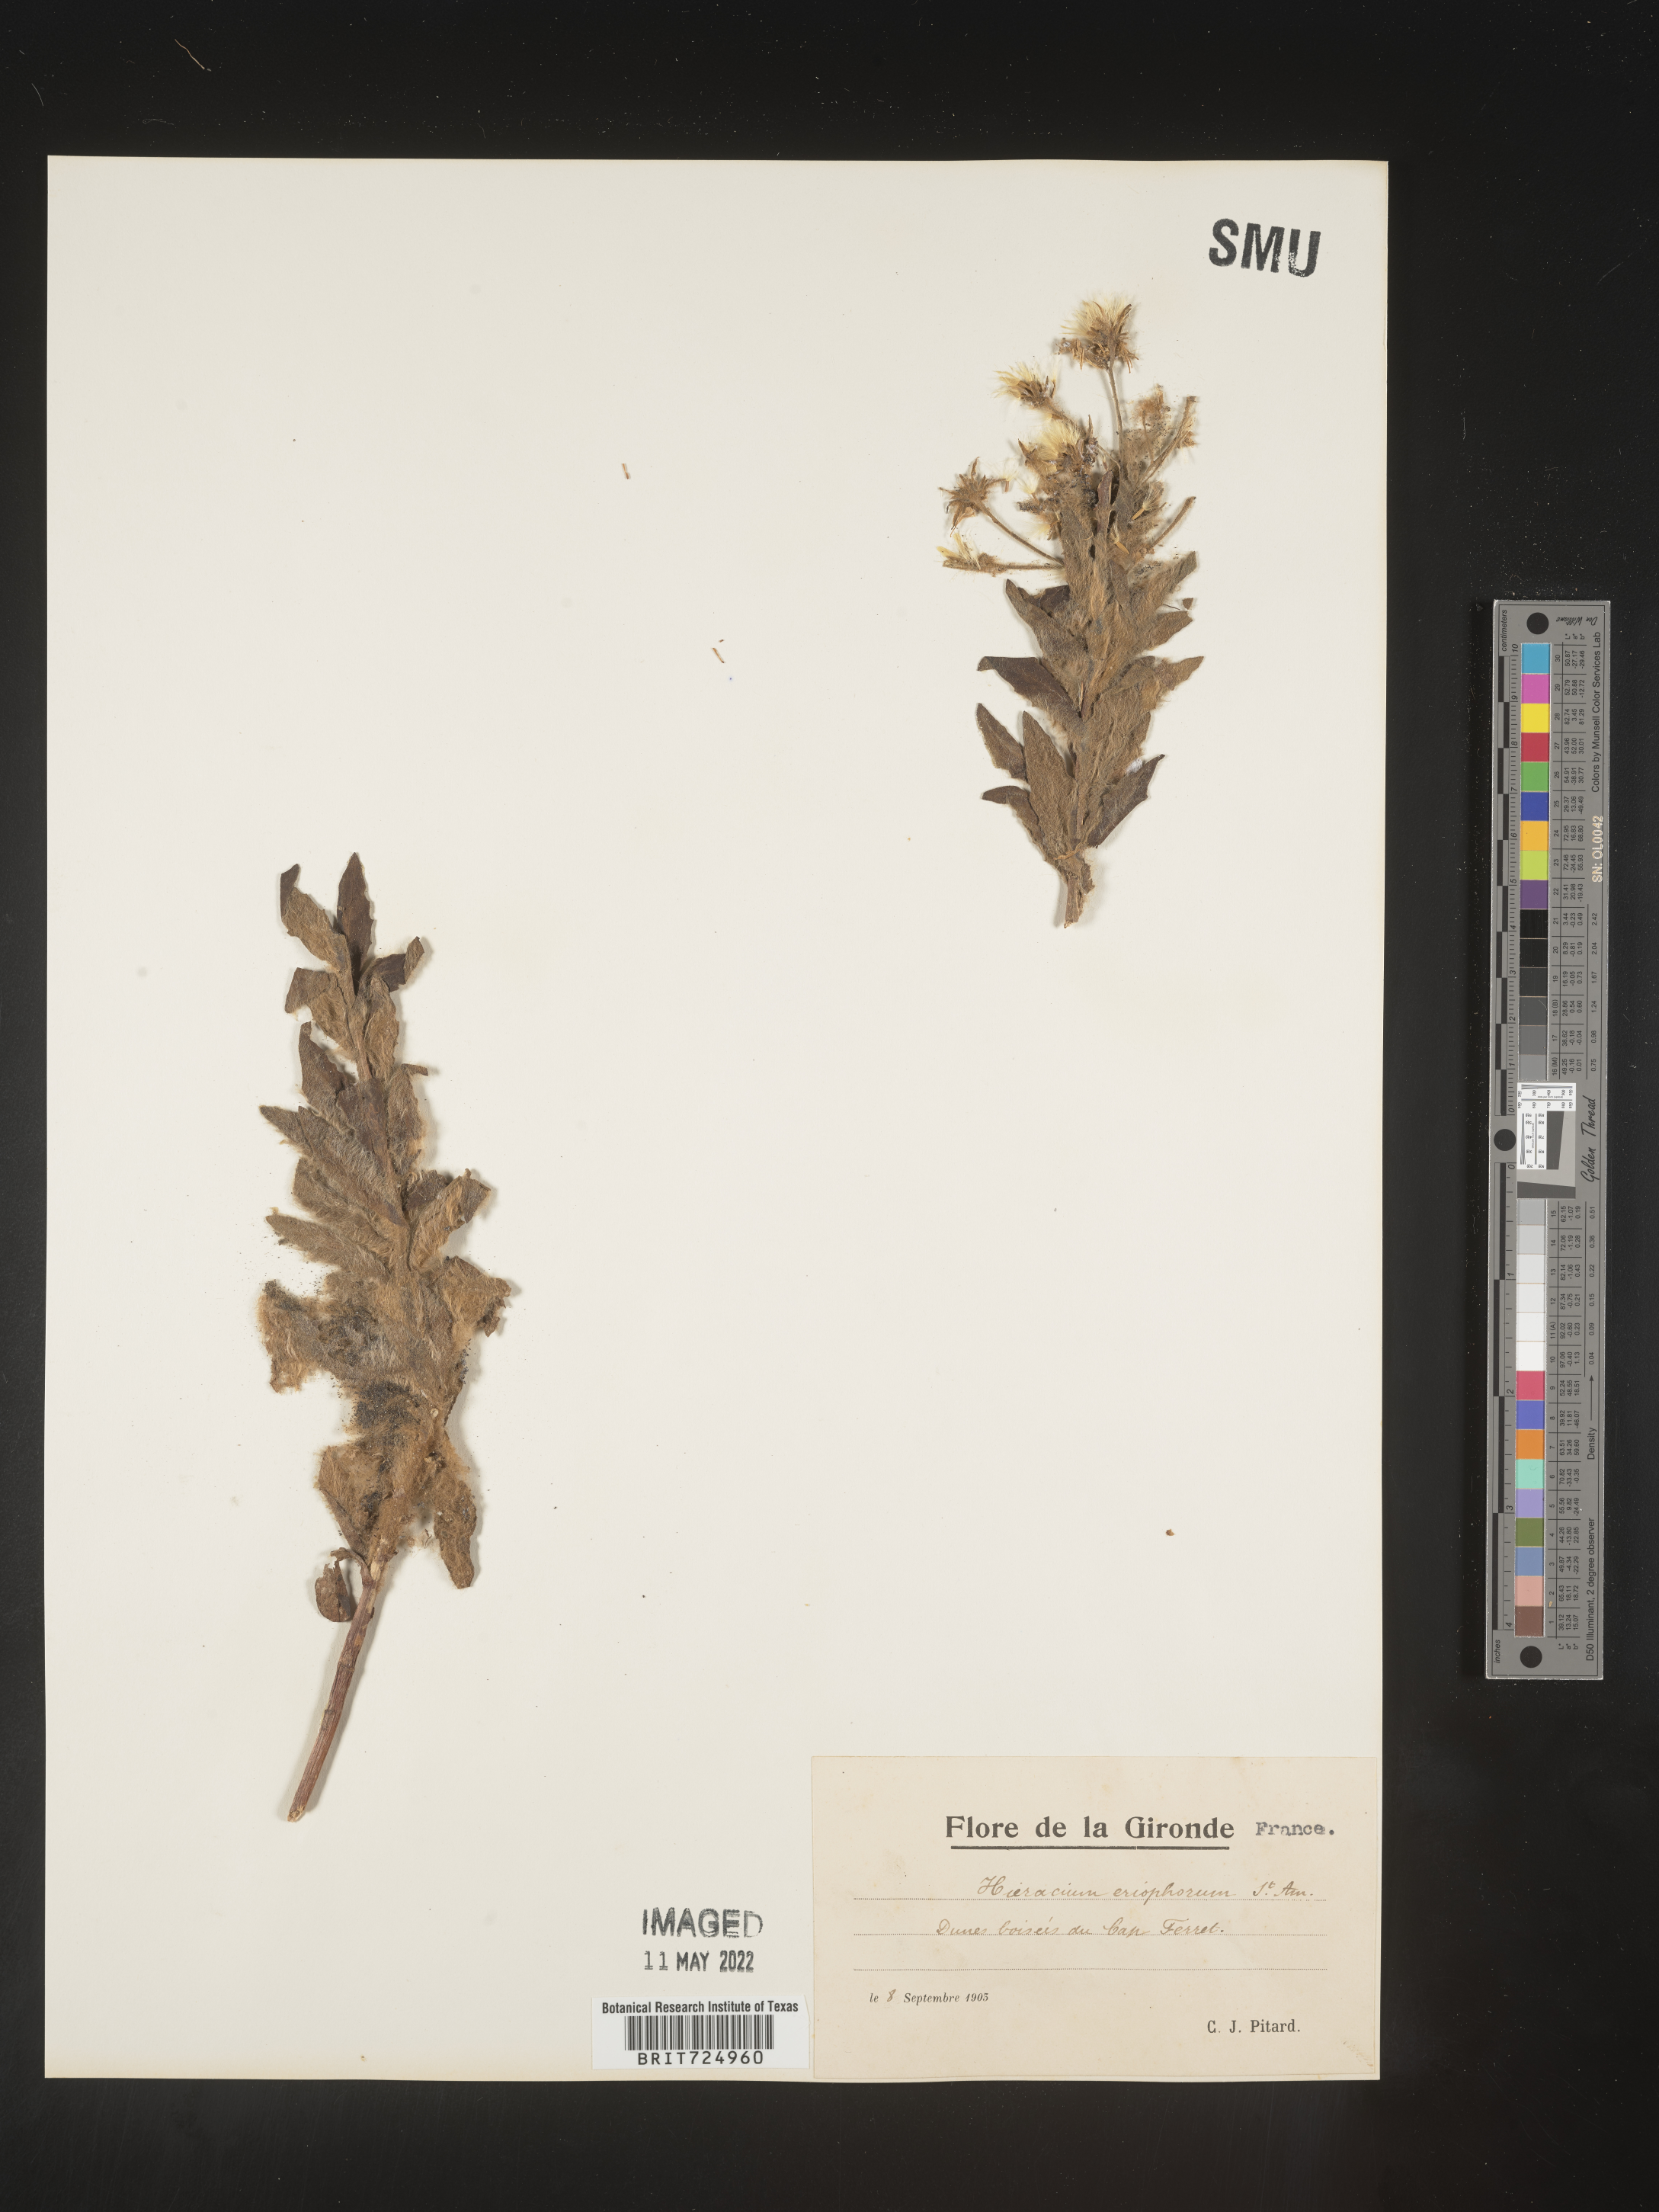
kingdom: Plantae
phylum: Tracheophyta
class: Magnoliopsida
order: Asterales
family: Asteraceae
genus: Hieracium
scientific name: Hieracium
